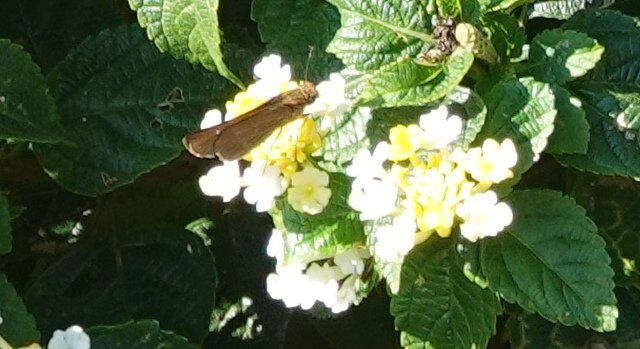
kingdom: Animalia
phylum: Arthropoda
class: Insecta
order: Lepidoptera
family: Hesperiidae
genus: Panoquina
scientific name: Panoquina ocola
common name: Ocola Skipper
